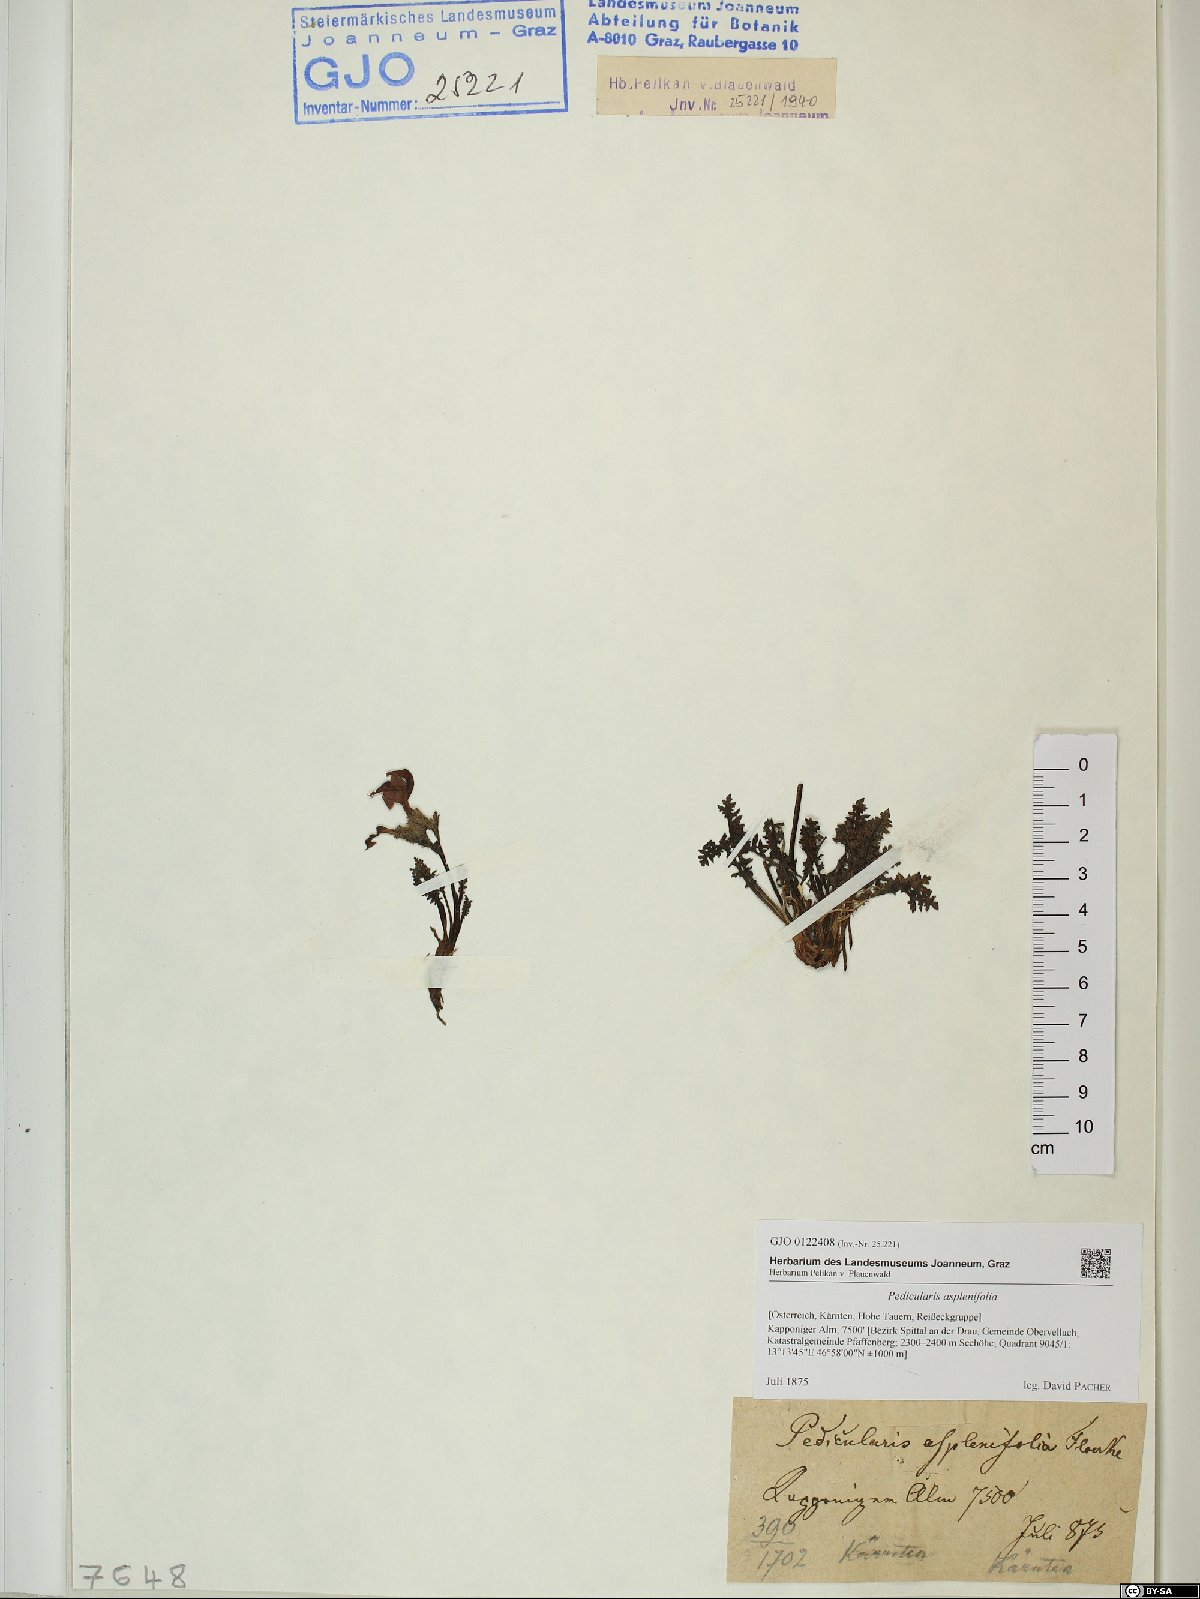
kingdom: Plantae
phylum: Tracheophyta
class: Magnoliopsida
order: Lamiales
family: Orobanchaceae
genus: Pedicularis
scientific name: Pedicularis asplenifolia
